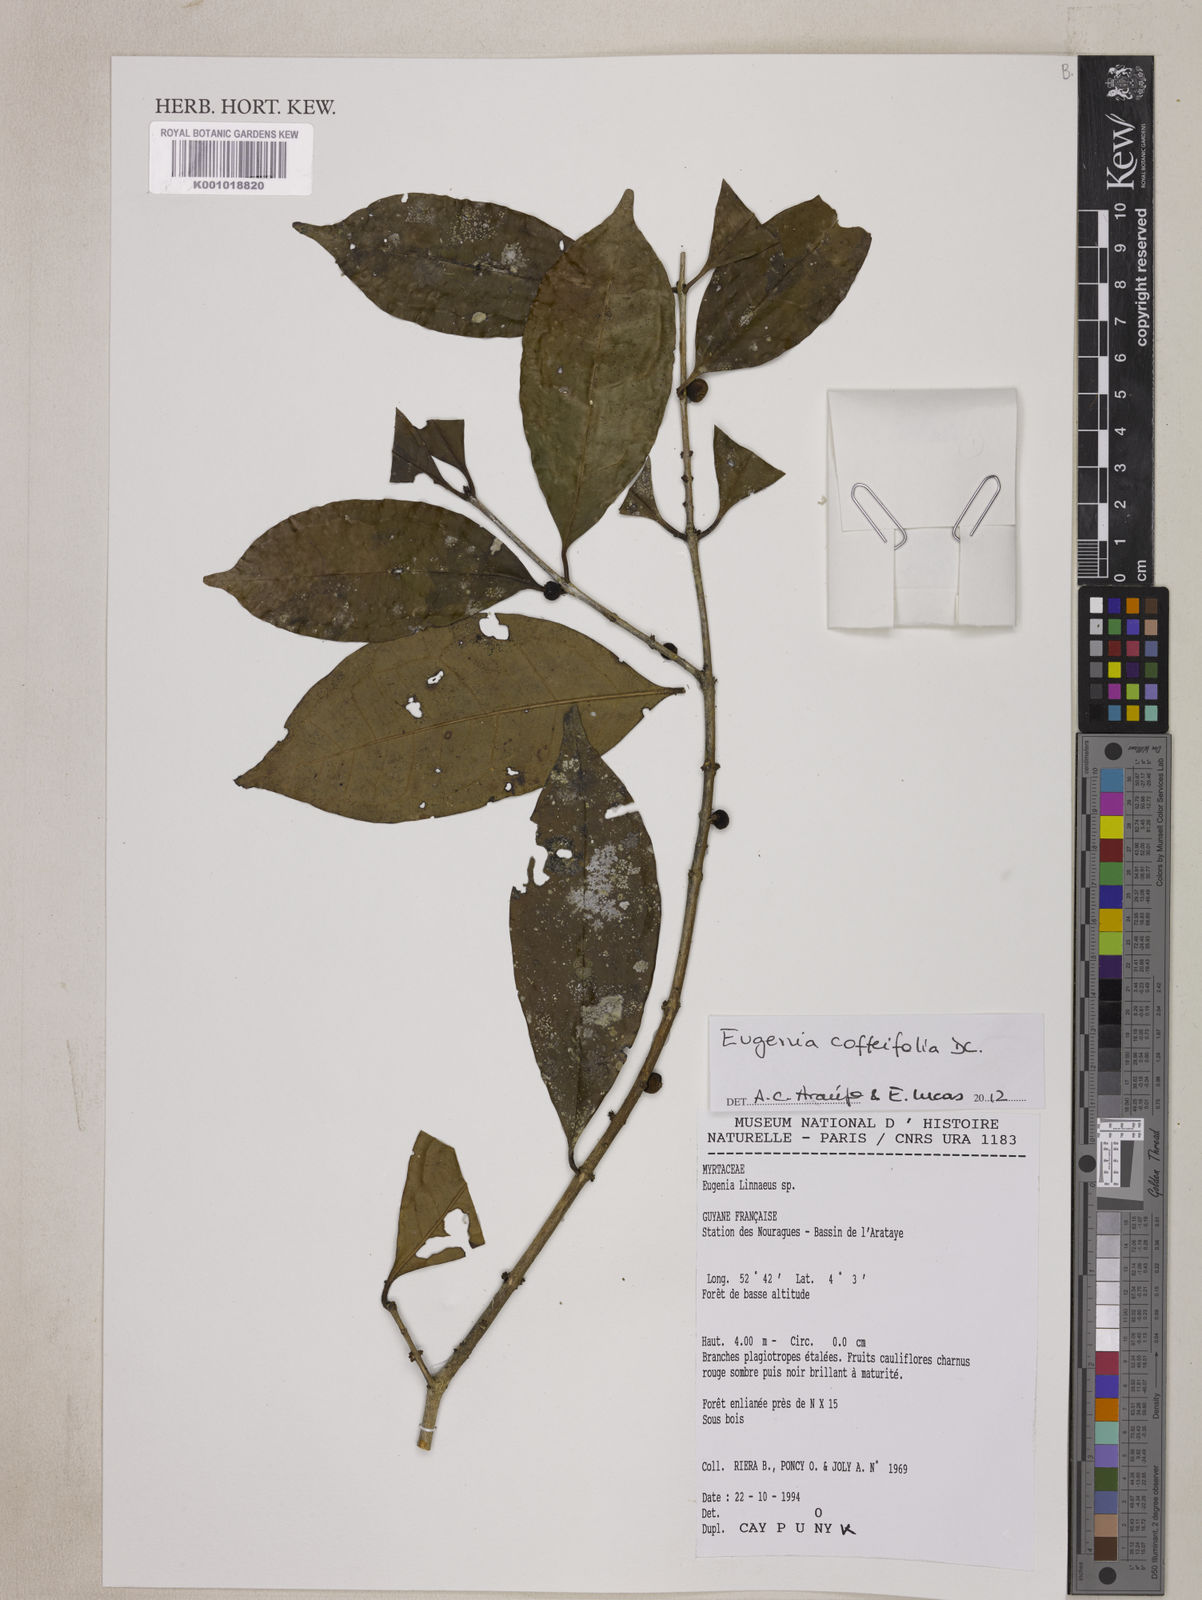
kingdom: Plantae
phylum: Tracheophyta
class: Magnoliopsida
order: Myrtales
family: Myrtaceae
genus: Eugenia
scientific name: Eugenia coffeifolia
